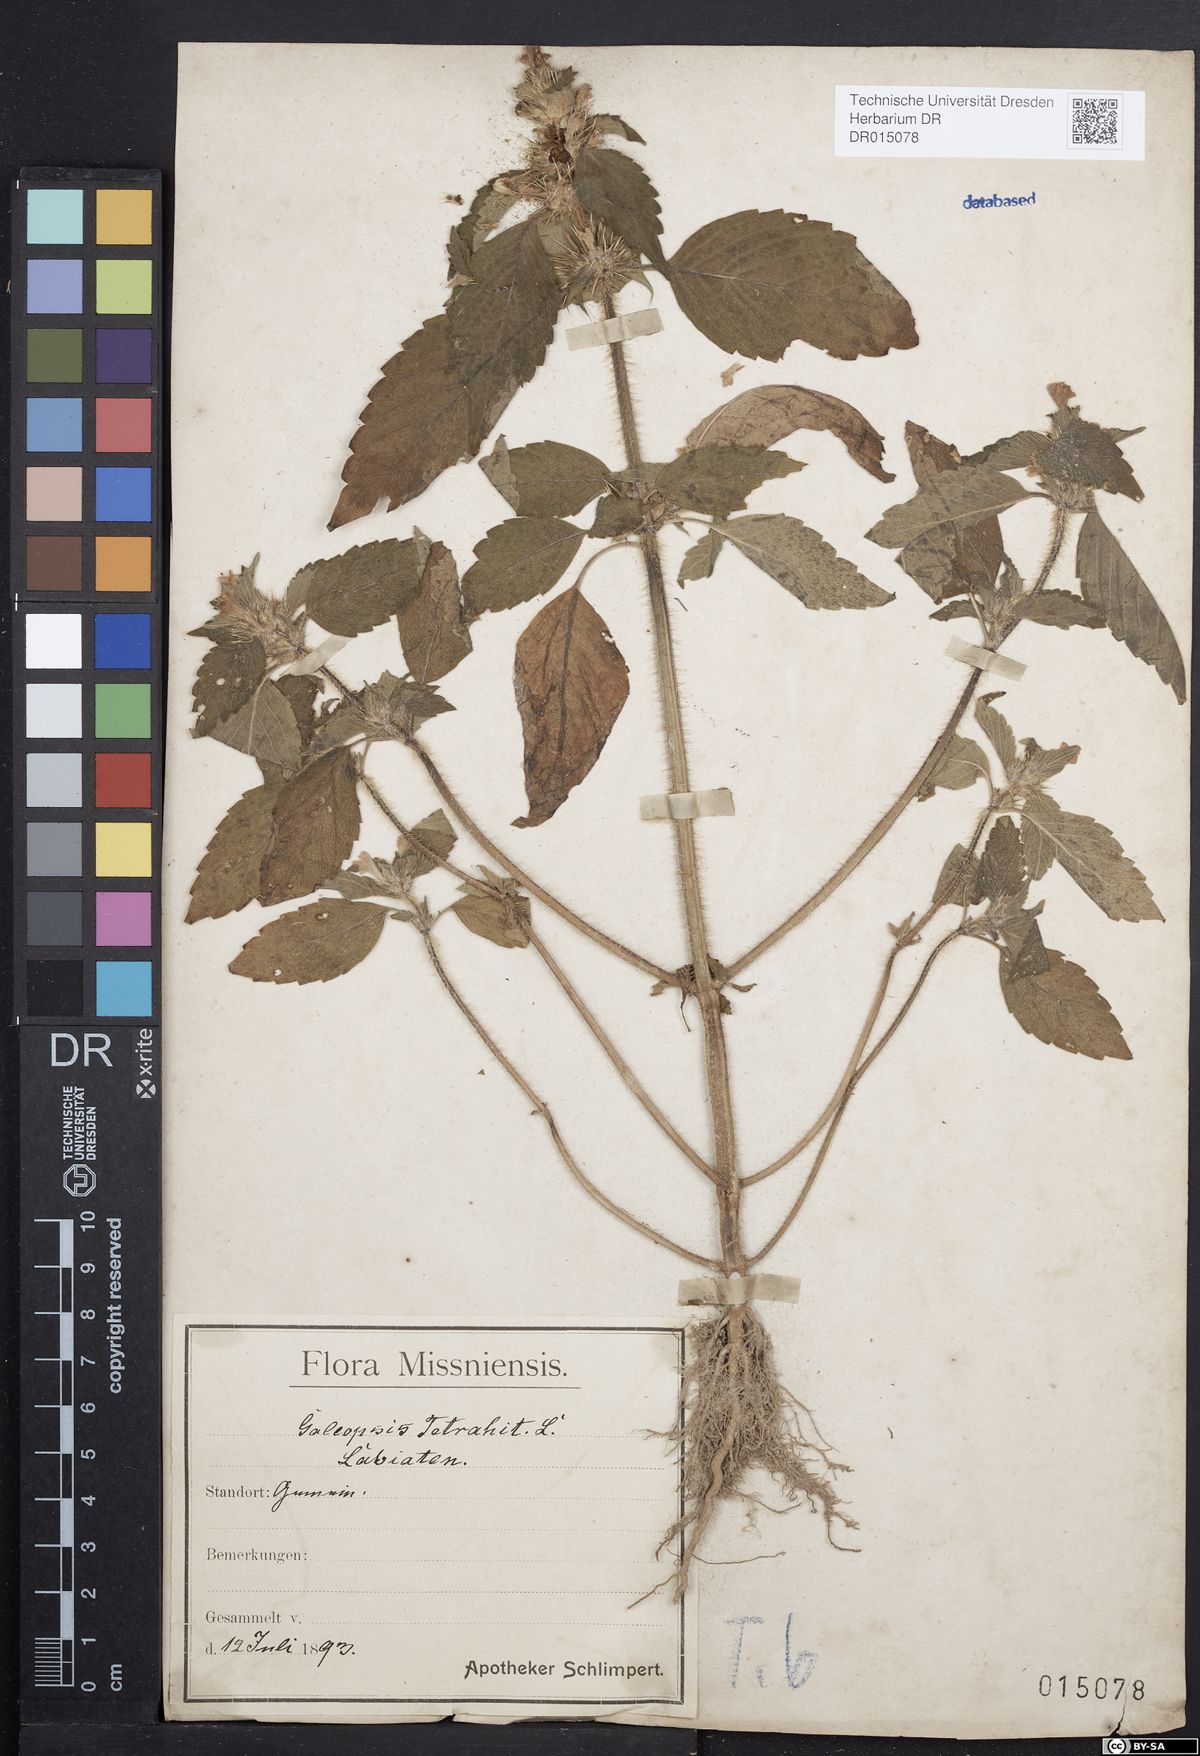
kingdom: Plantae
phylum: Tracheophyta
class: Magnoliopsida
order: Lamiales
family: Lamiaceae
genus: Galeopsis
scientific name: Galeopsis tetrahit
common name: Common hemp-nettle
